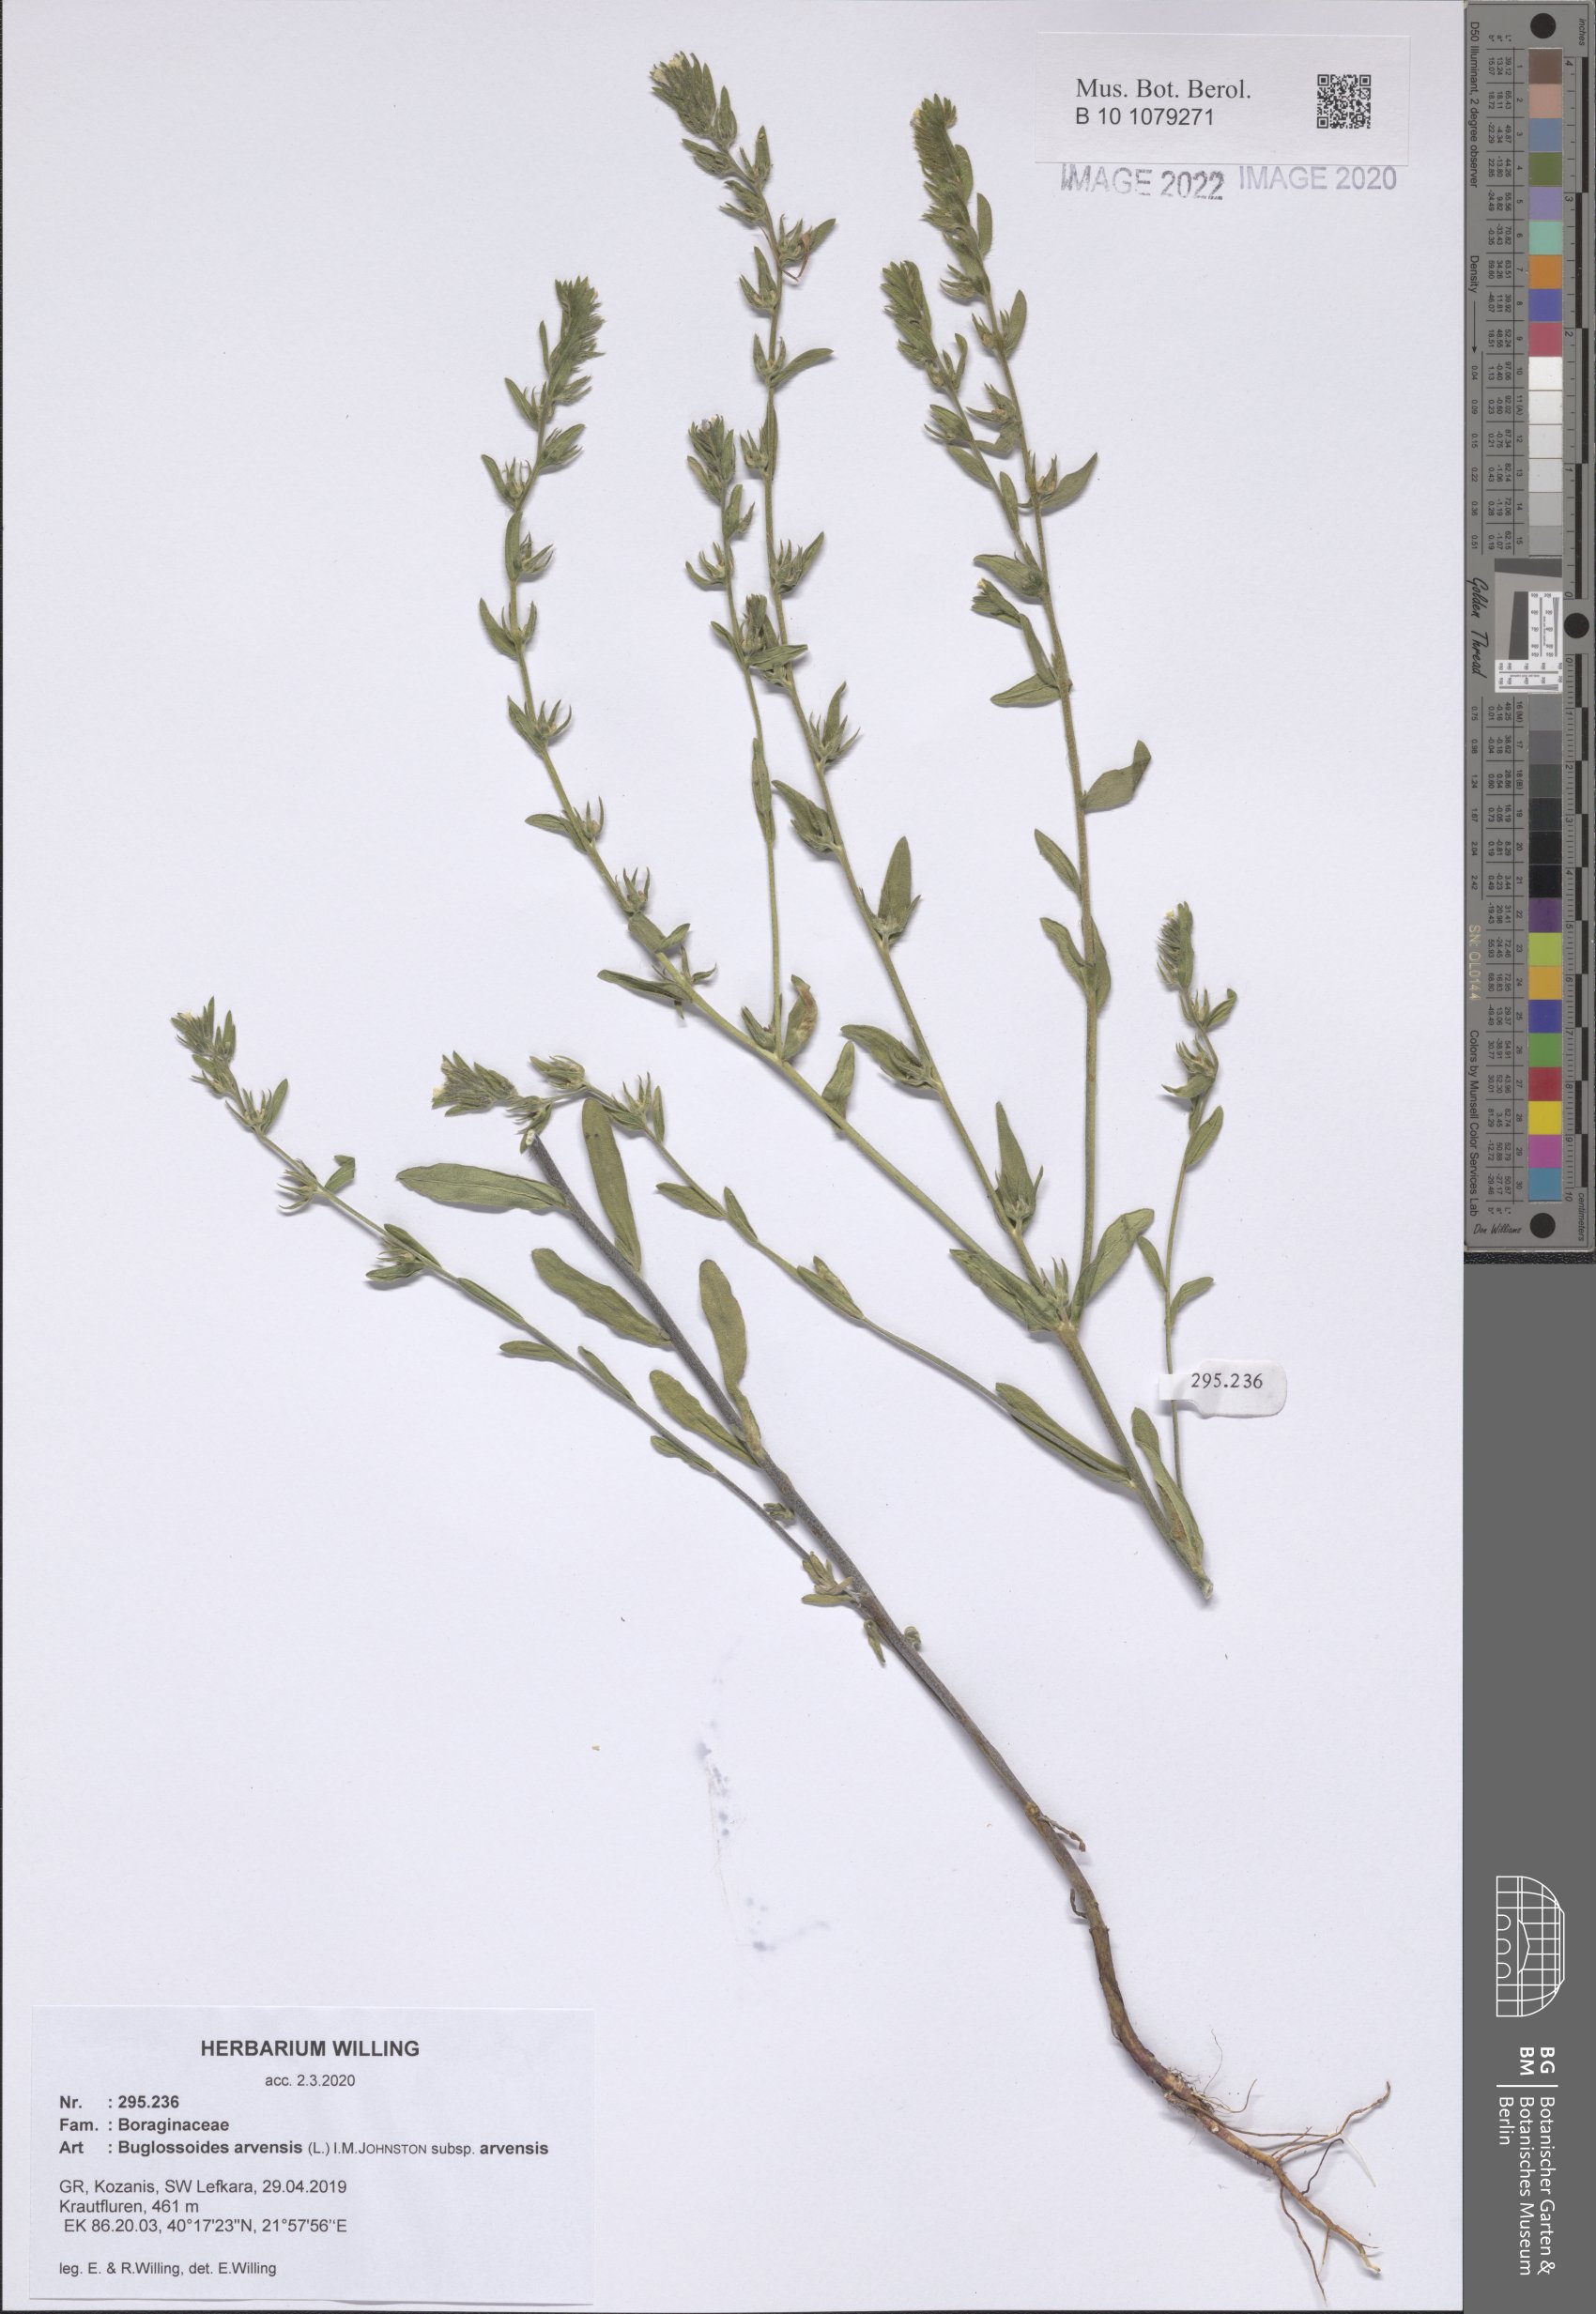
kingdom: Plantae
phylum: Tracheophyta
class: Magnoliopsida
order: Boraginales
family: Boraginaceae
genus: Buglossoides
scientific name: Buglossoides arvensis
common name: Corn gromwell
